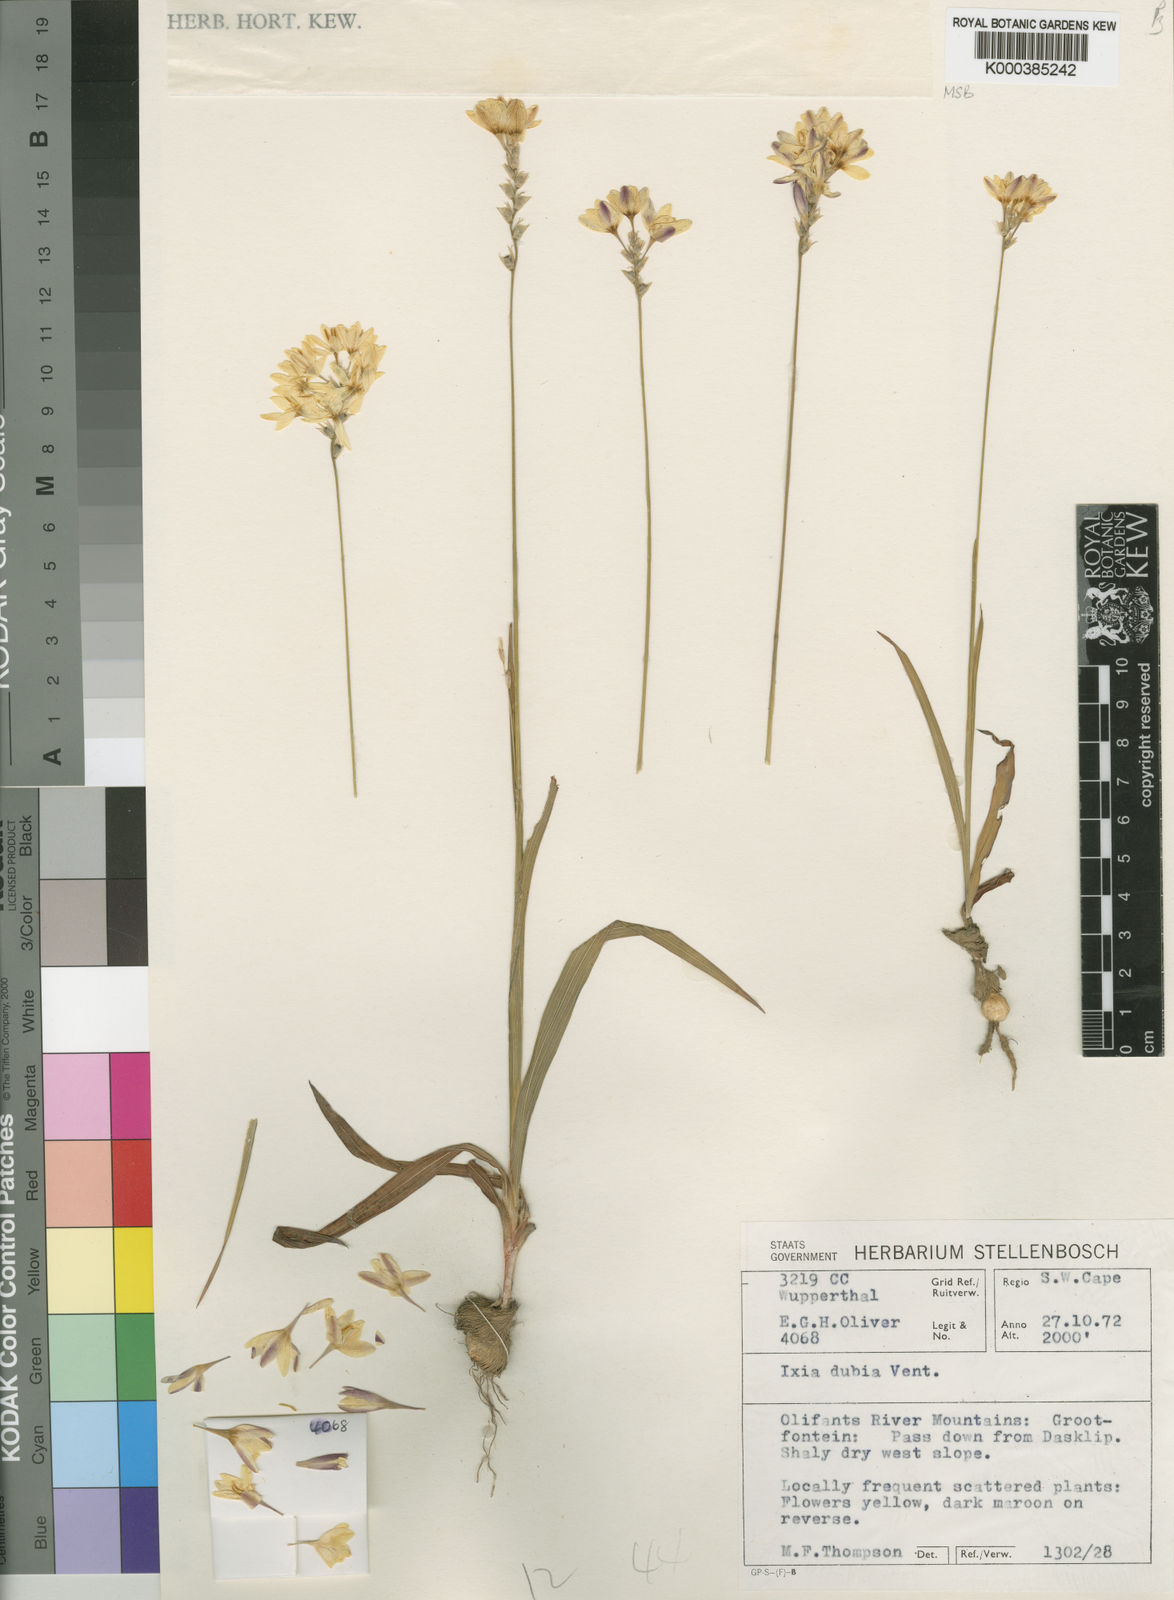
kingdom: Plantae
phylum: Tracheophyta
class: Liliopsida
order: Asparagales
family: Iridaceae
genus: Ixia
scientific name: Ixia dubia
